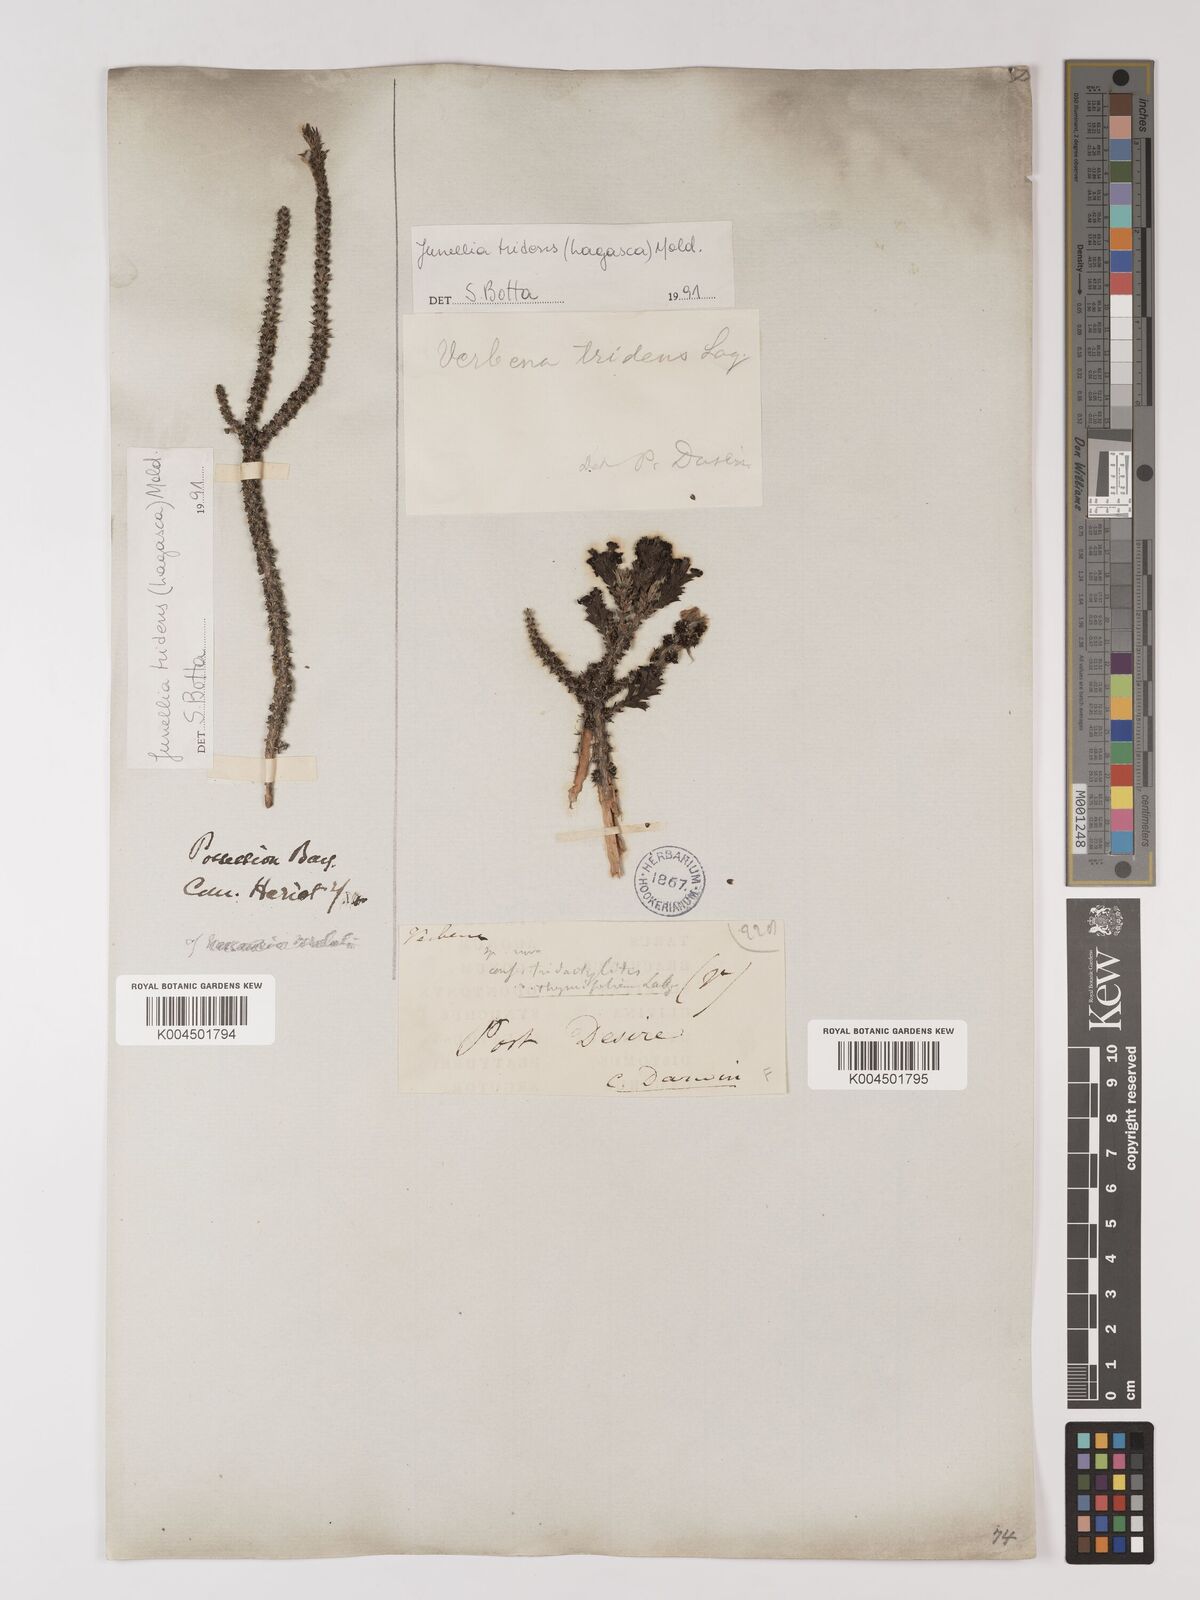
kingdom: Plantae
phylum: Tracheophyta
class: Magnoliopsida
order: Lamiales
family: Verbenaceae
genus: Mulguraea
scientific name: Mulguraea tridens
